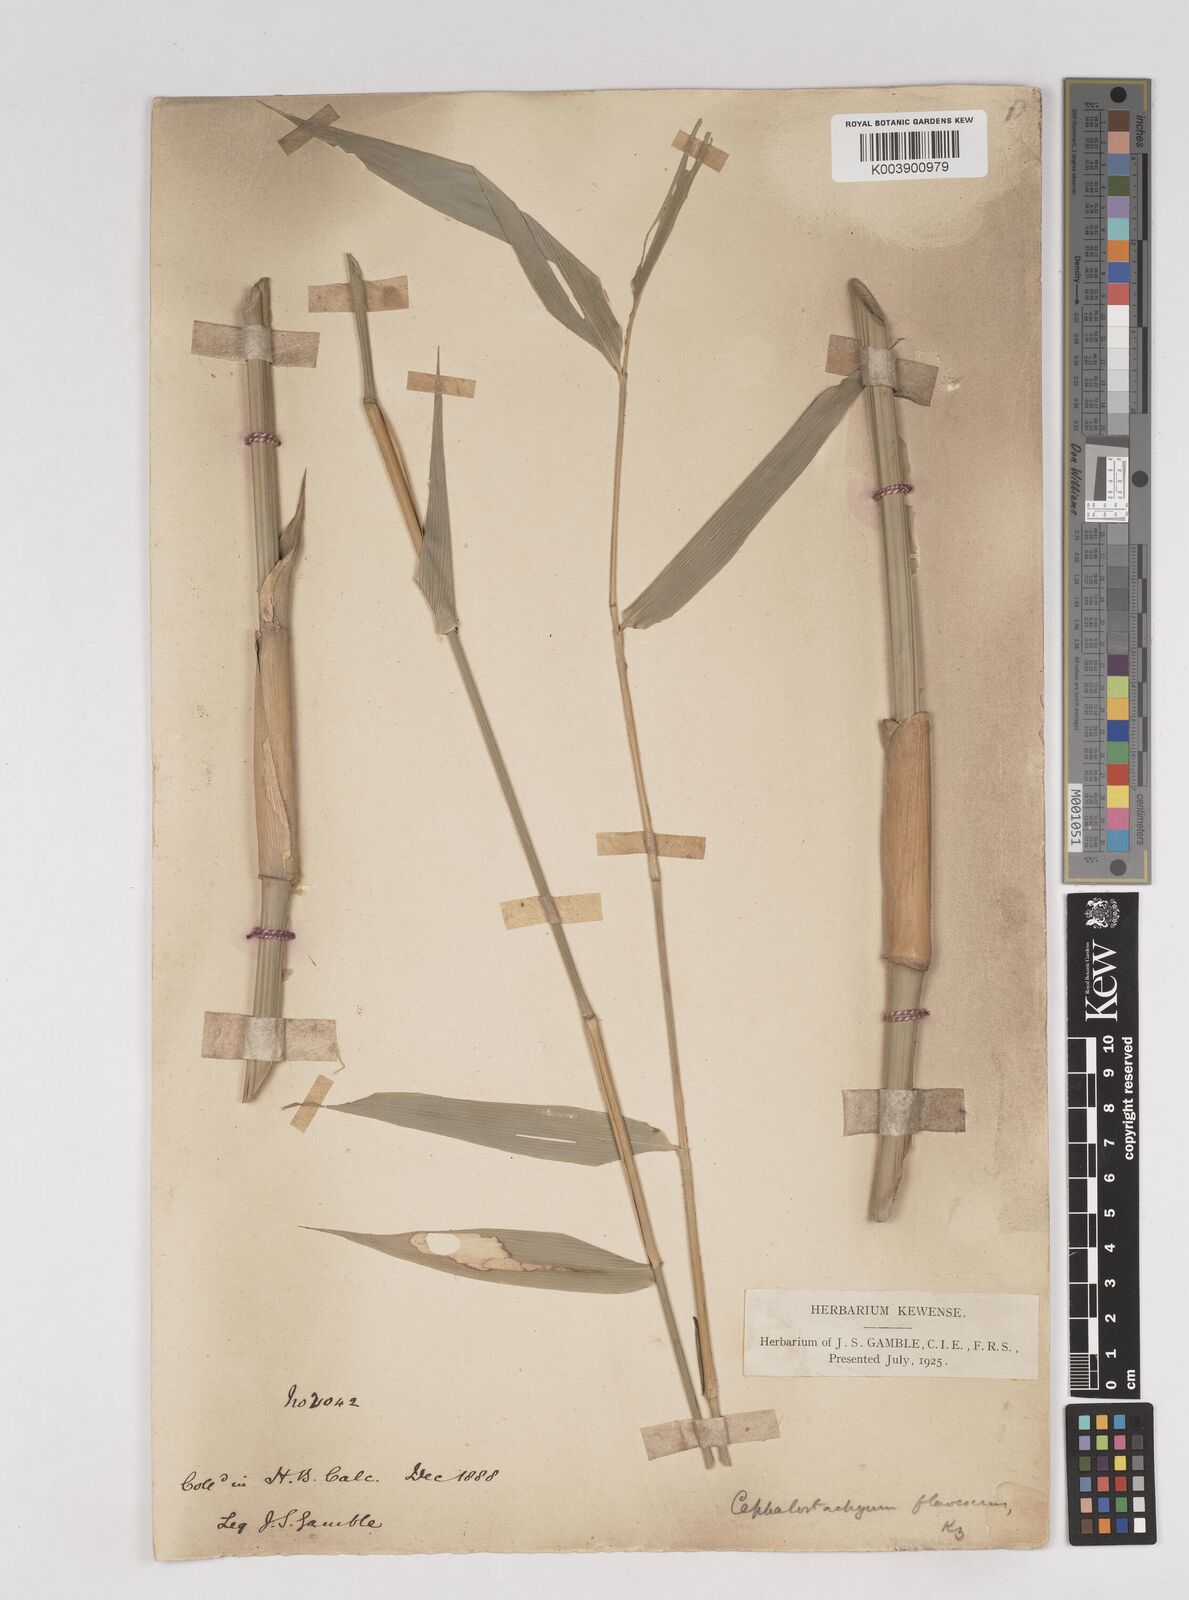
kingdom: Plantae
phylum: Tracheophyta
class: Liliopsida
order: Poales
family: Poaceae
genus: Cephalostachyum
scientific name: Cephalostachyum flavescens
